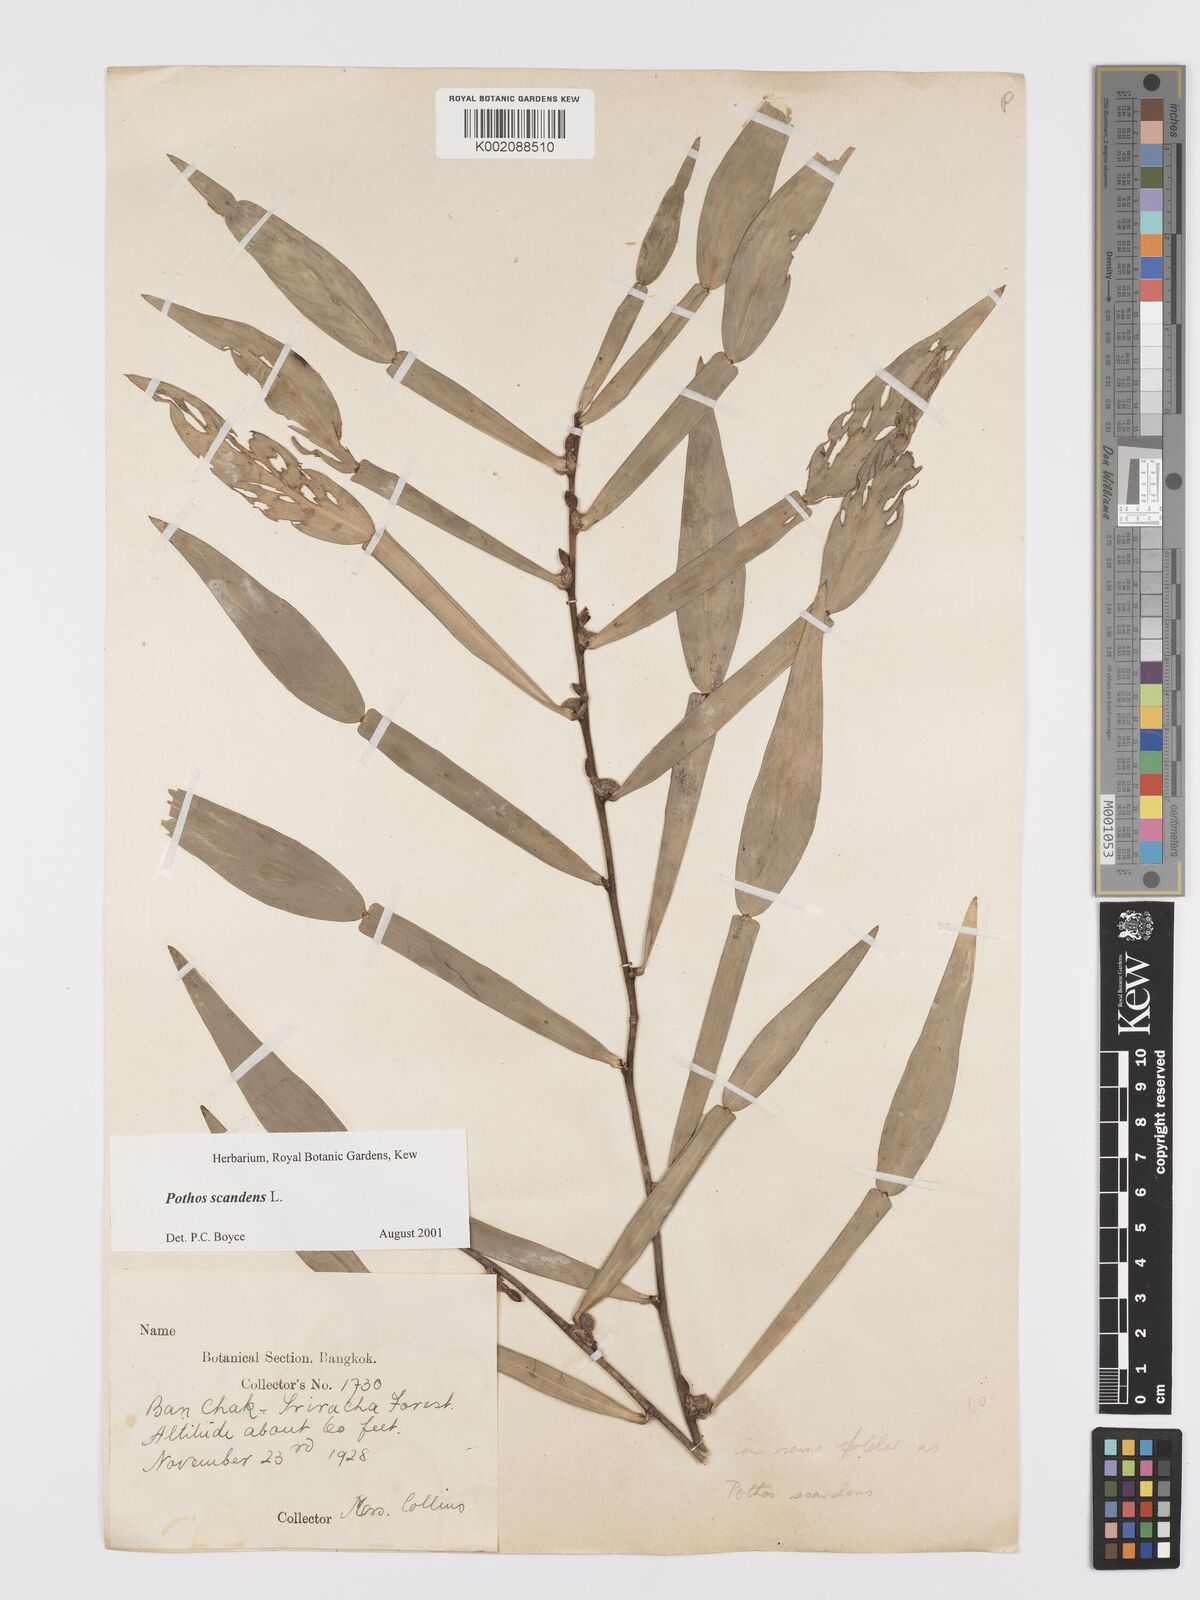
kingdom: Plantae
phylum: Tracheophyta
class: Liliopsida
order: Alismatales
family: Araceae
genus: Pothos
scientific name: Pothos scandens
